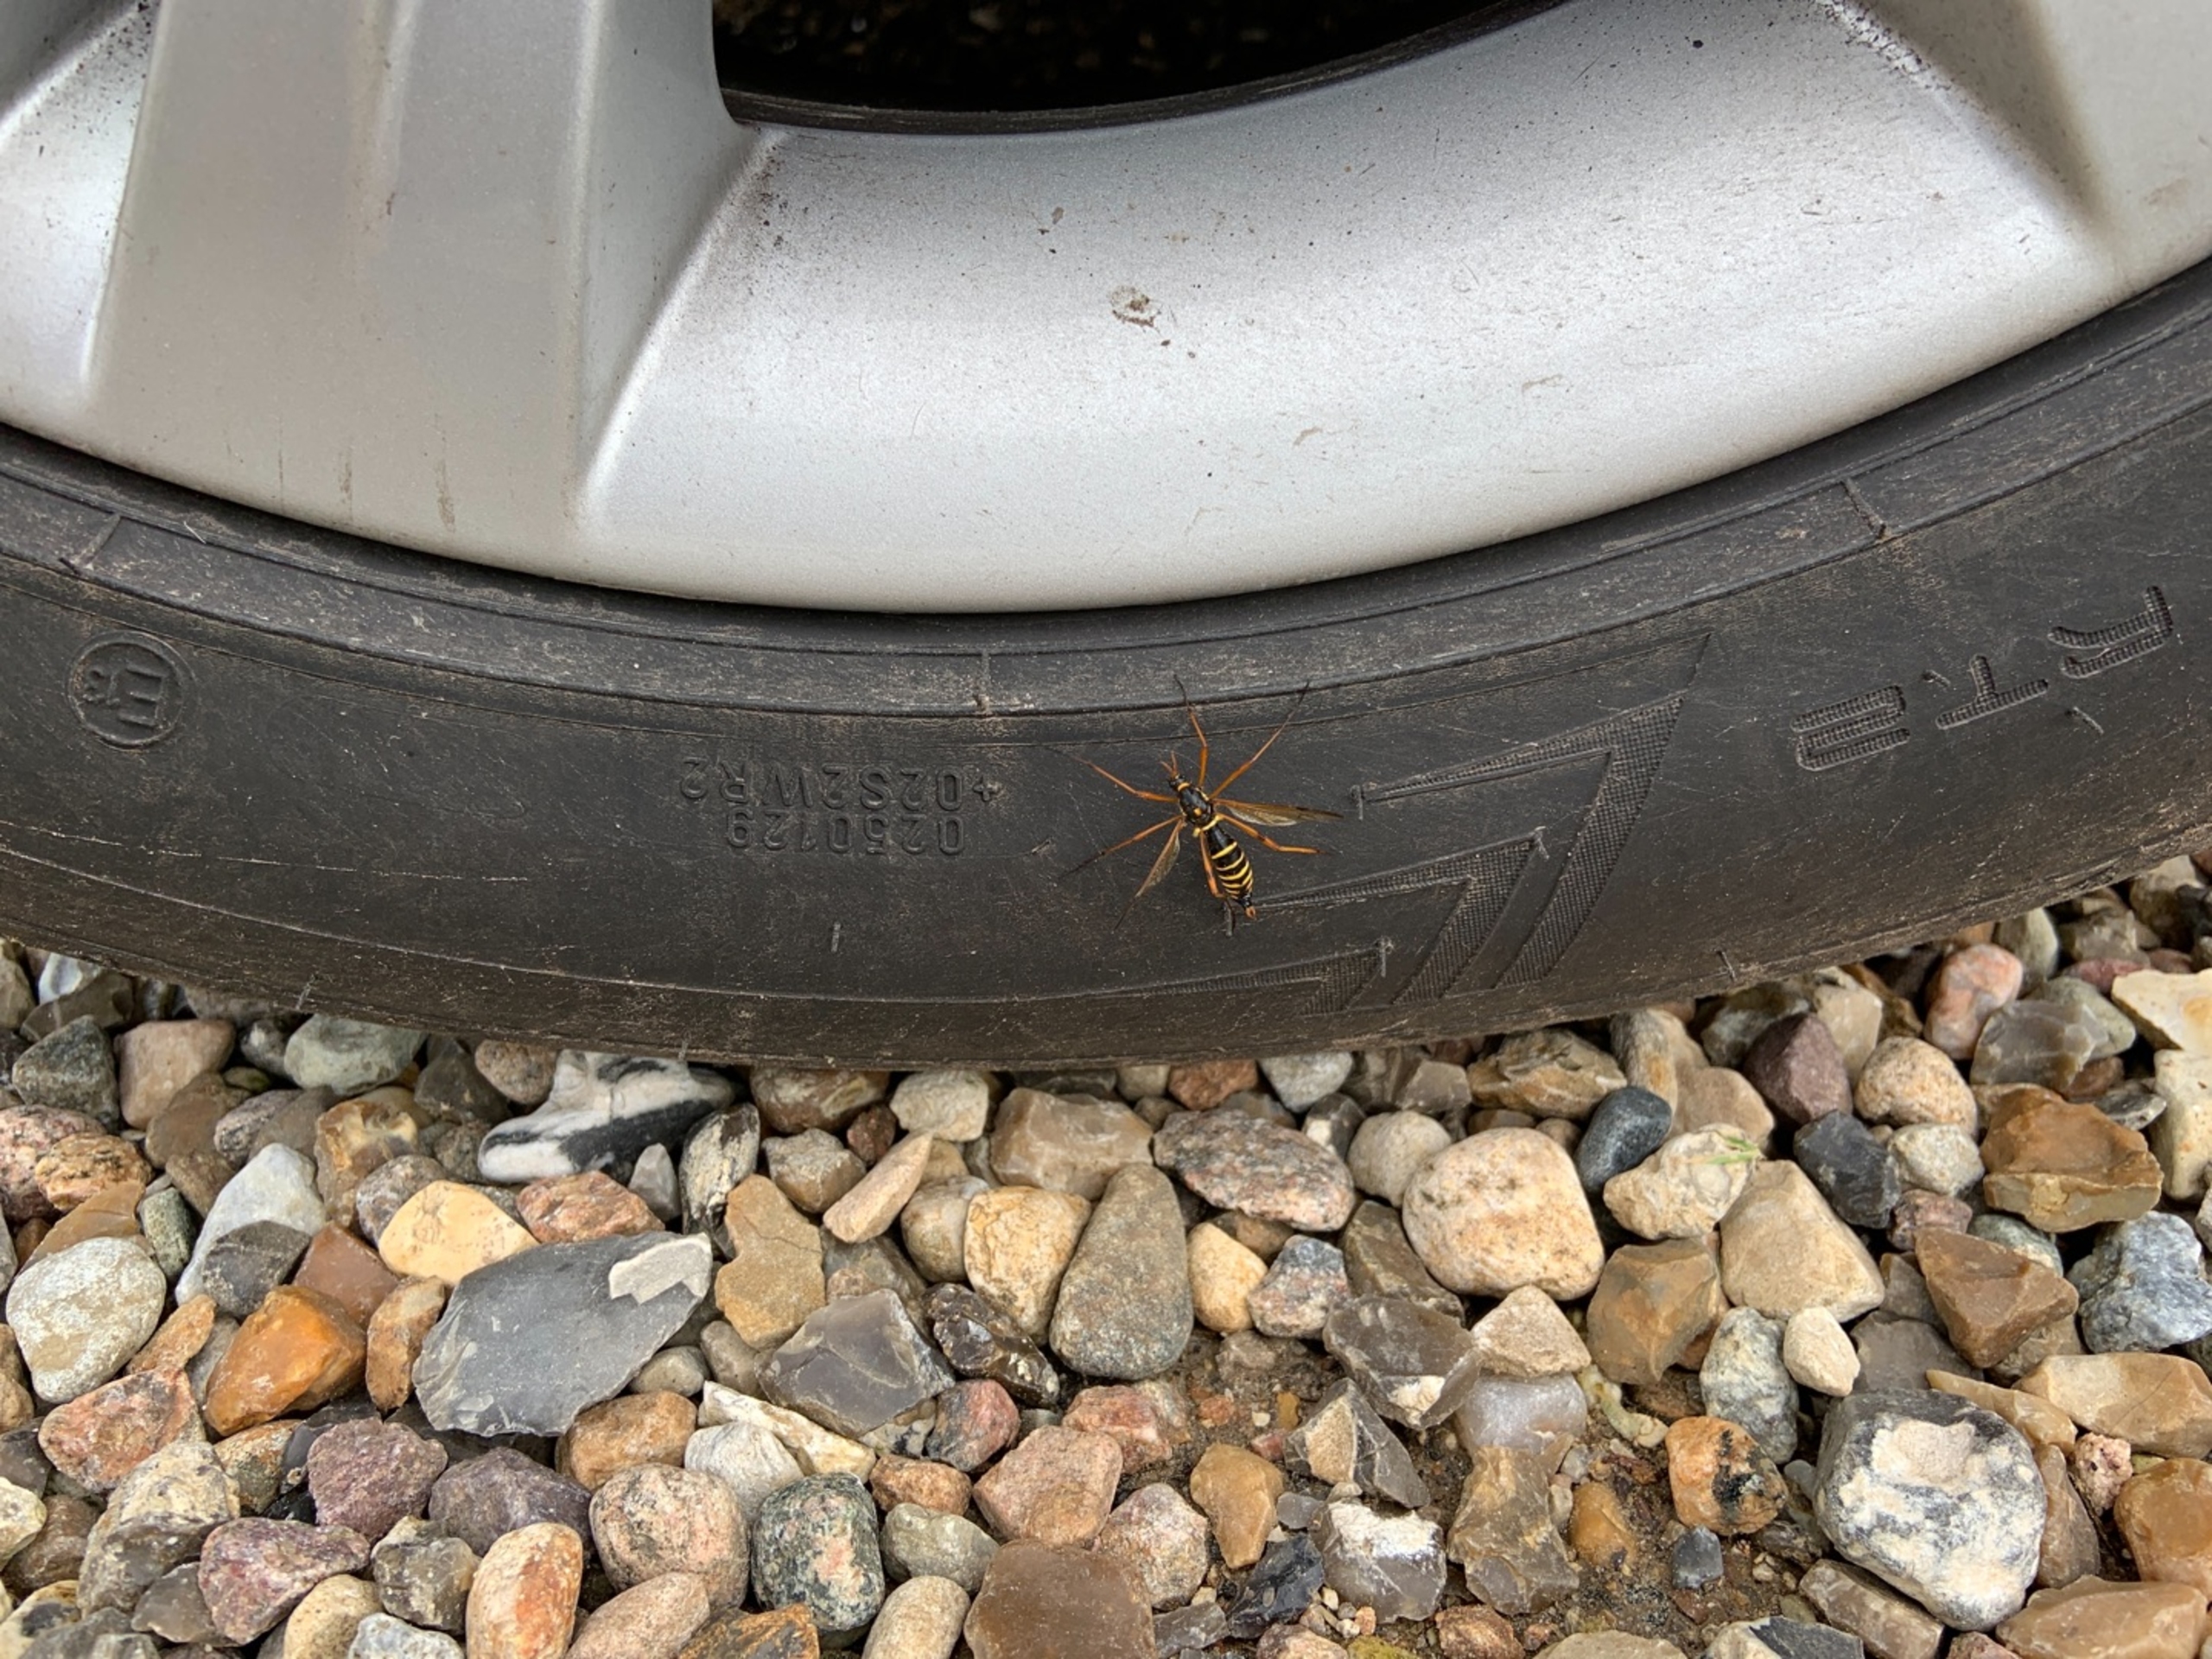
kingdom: Animalia
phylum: Arthropoda
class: Insecta
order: Diptera
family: Tipulidae
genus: Ctenophora
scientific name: Ctenophora flaveolata
